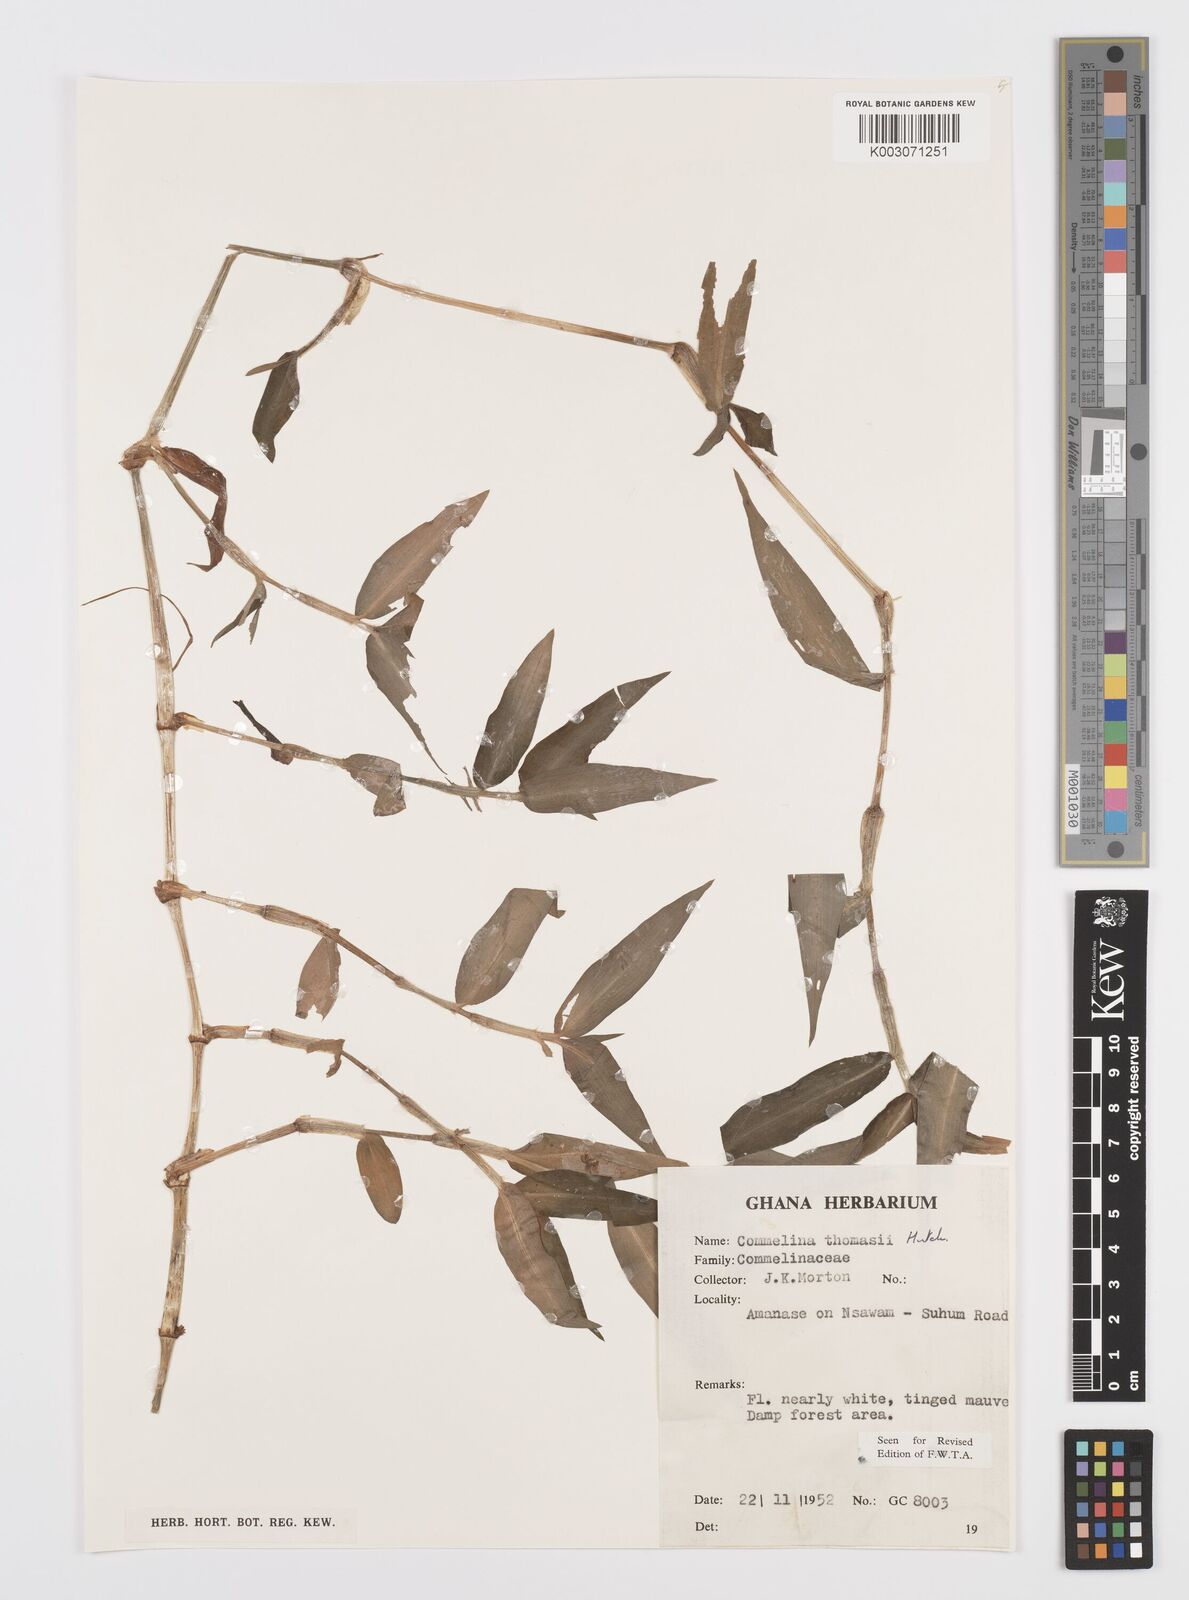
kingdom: Plantae
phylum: Tracheophyta
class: Liliopsida
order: Commelinales
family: Commelinaceae
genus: Commelina
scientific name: Commelina acutispatha
